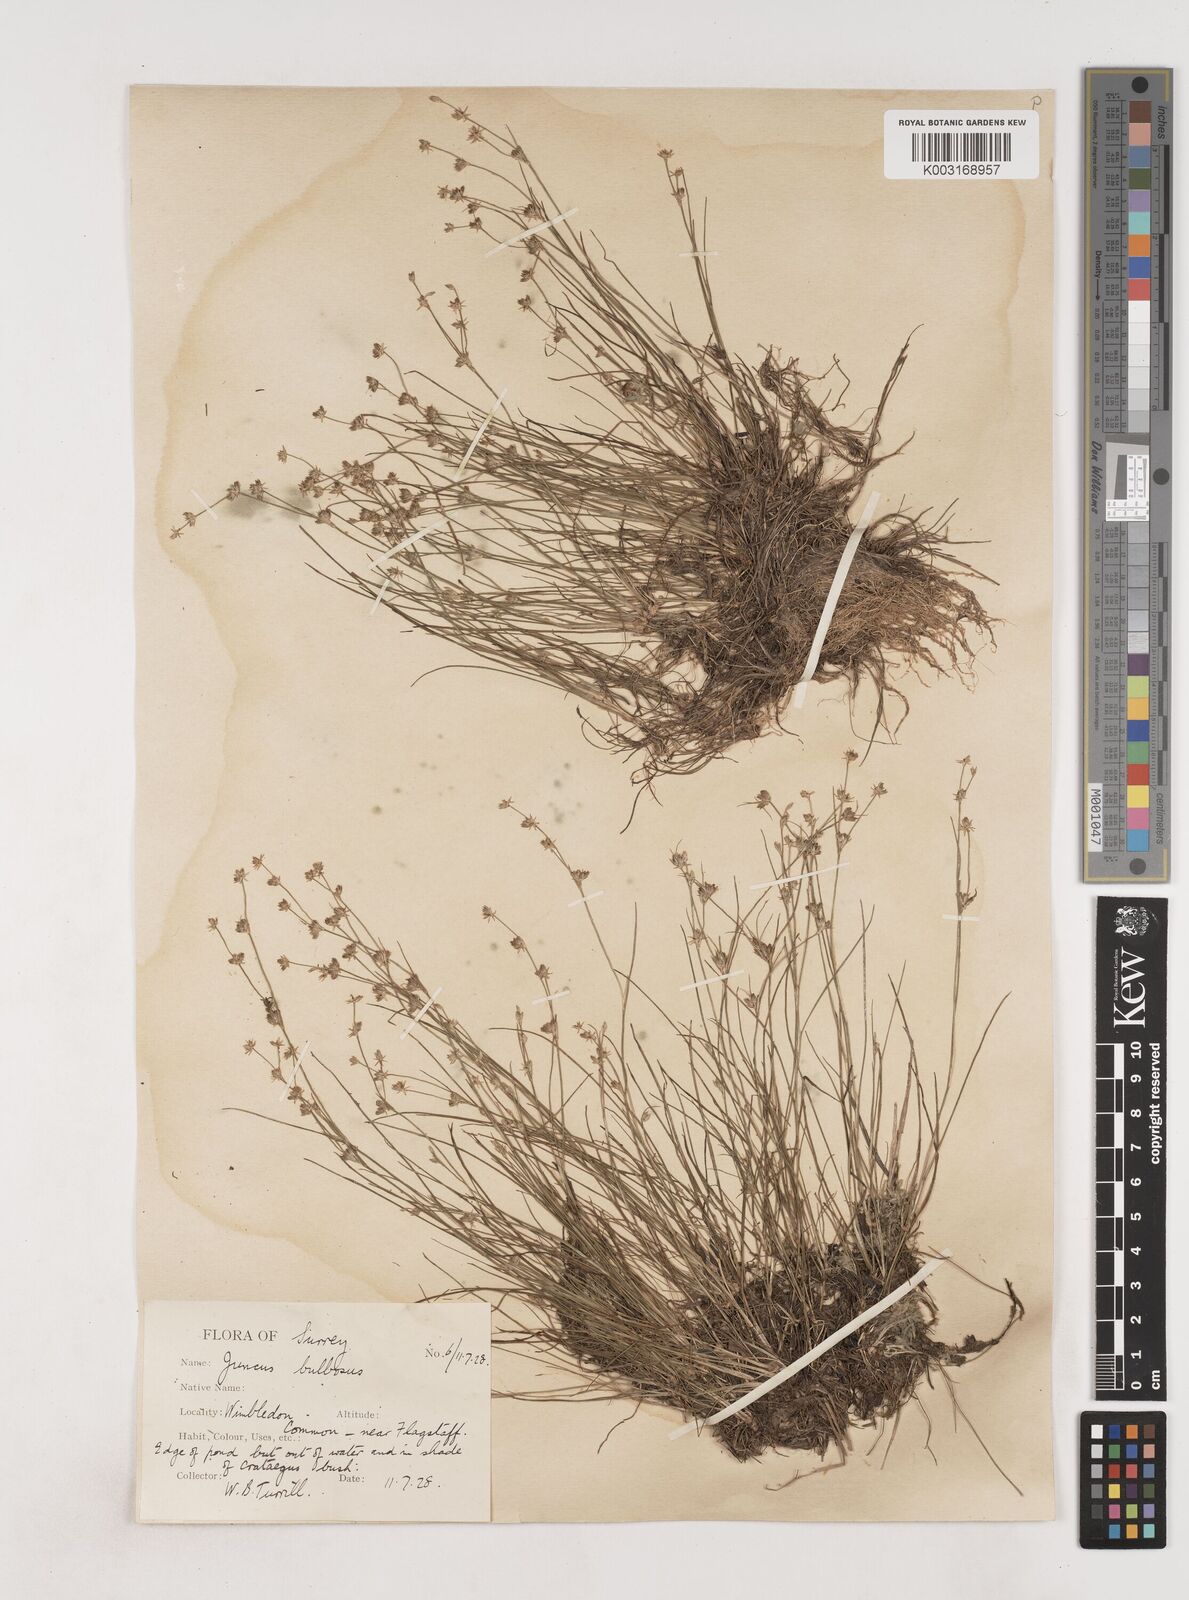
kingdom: Plantae
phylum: Tracheophyta
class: Liliopsida
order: Poales
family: Juncaceae
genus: Juncus
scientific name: Juncus bulbosus
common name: Bulbous rush
